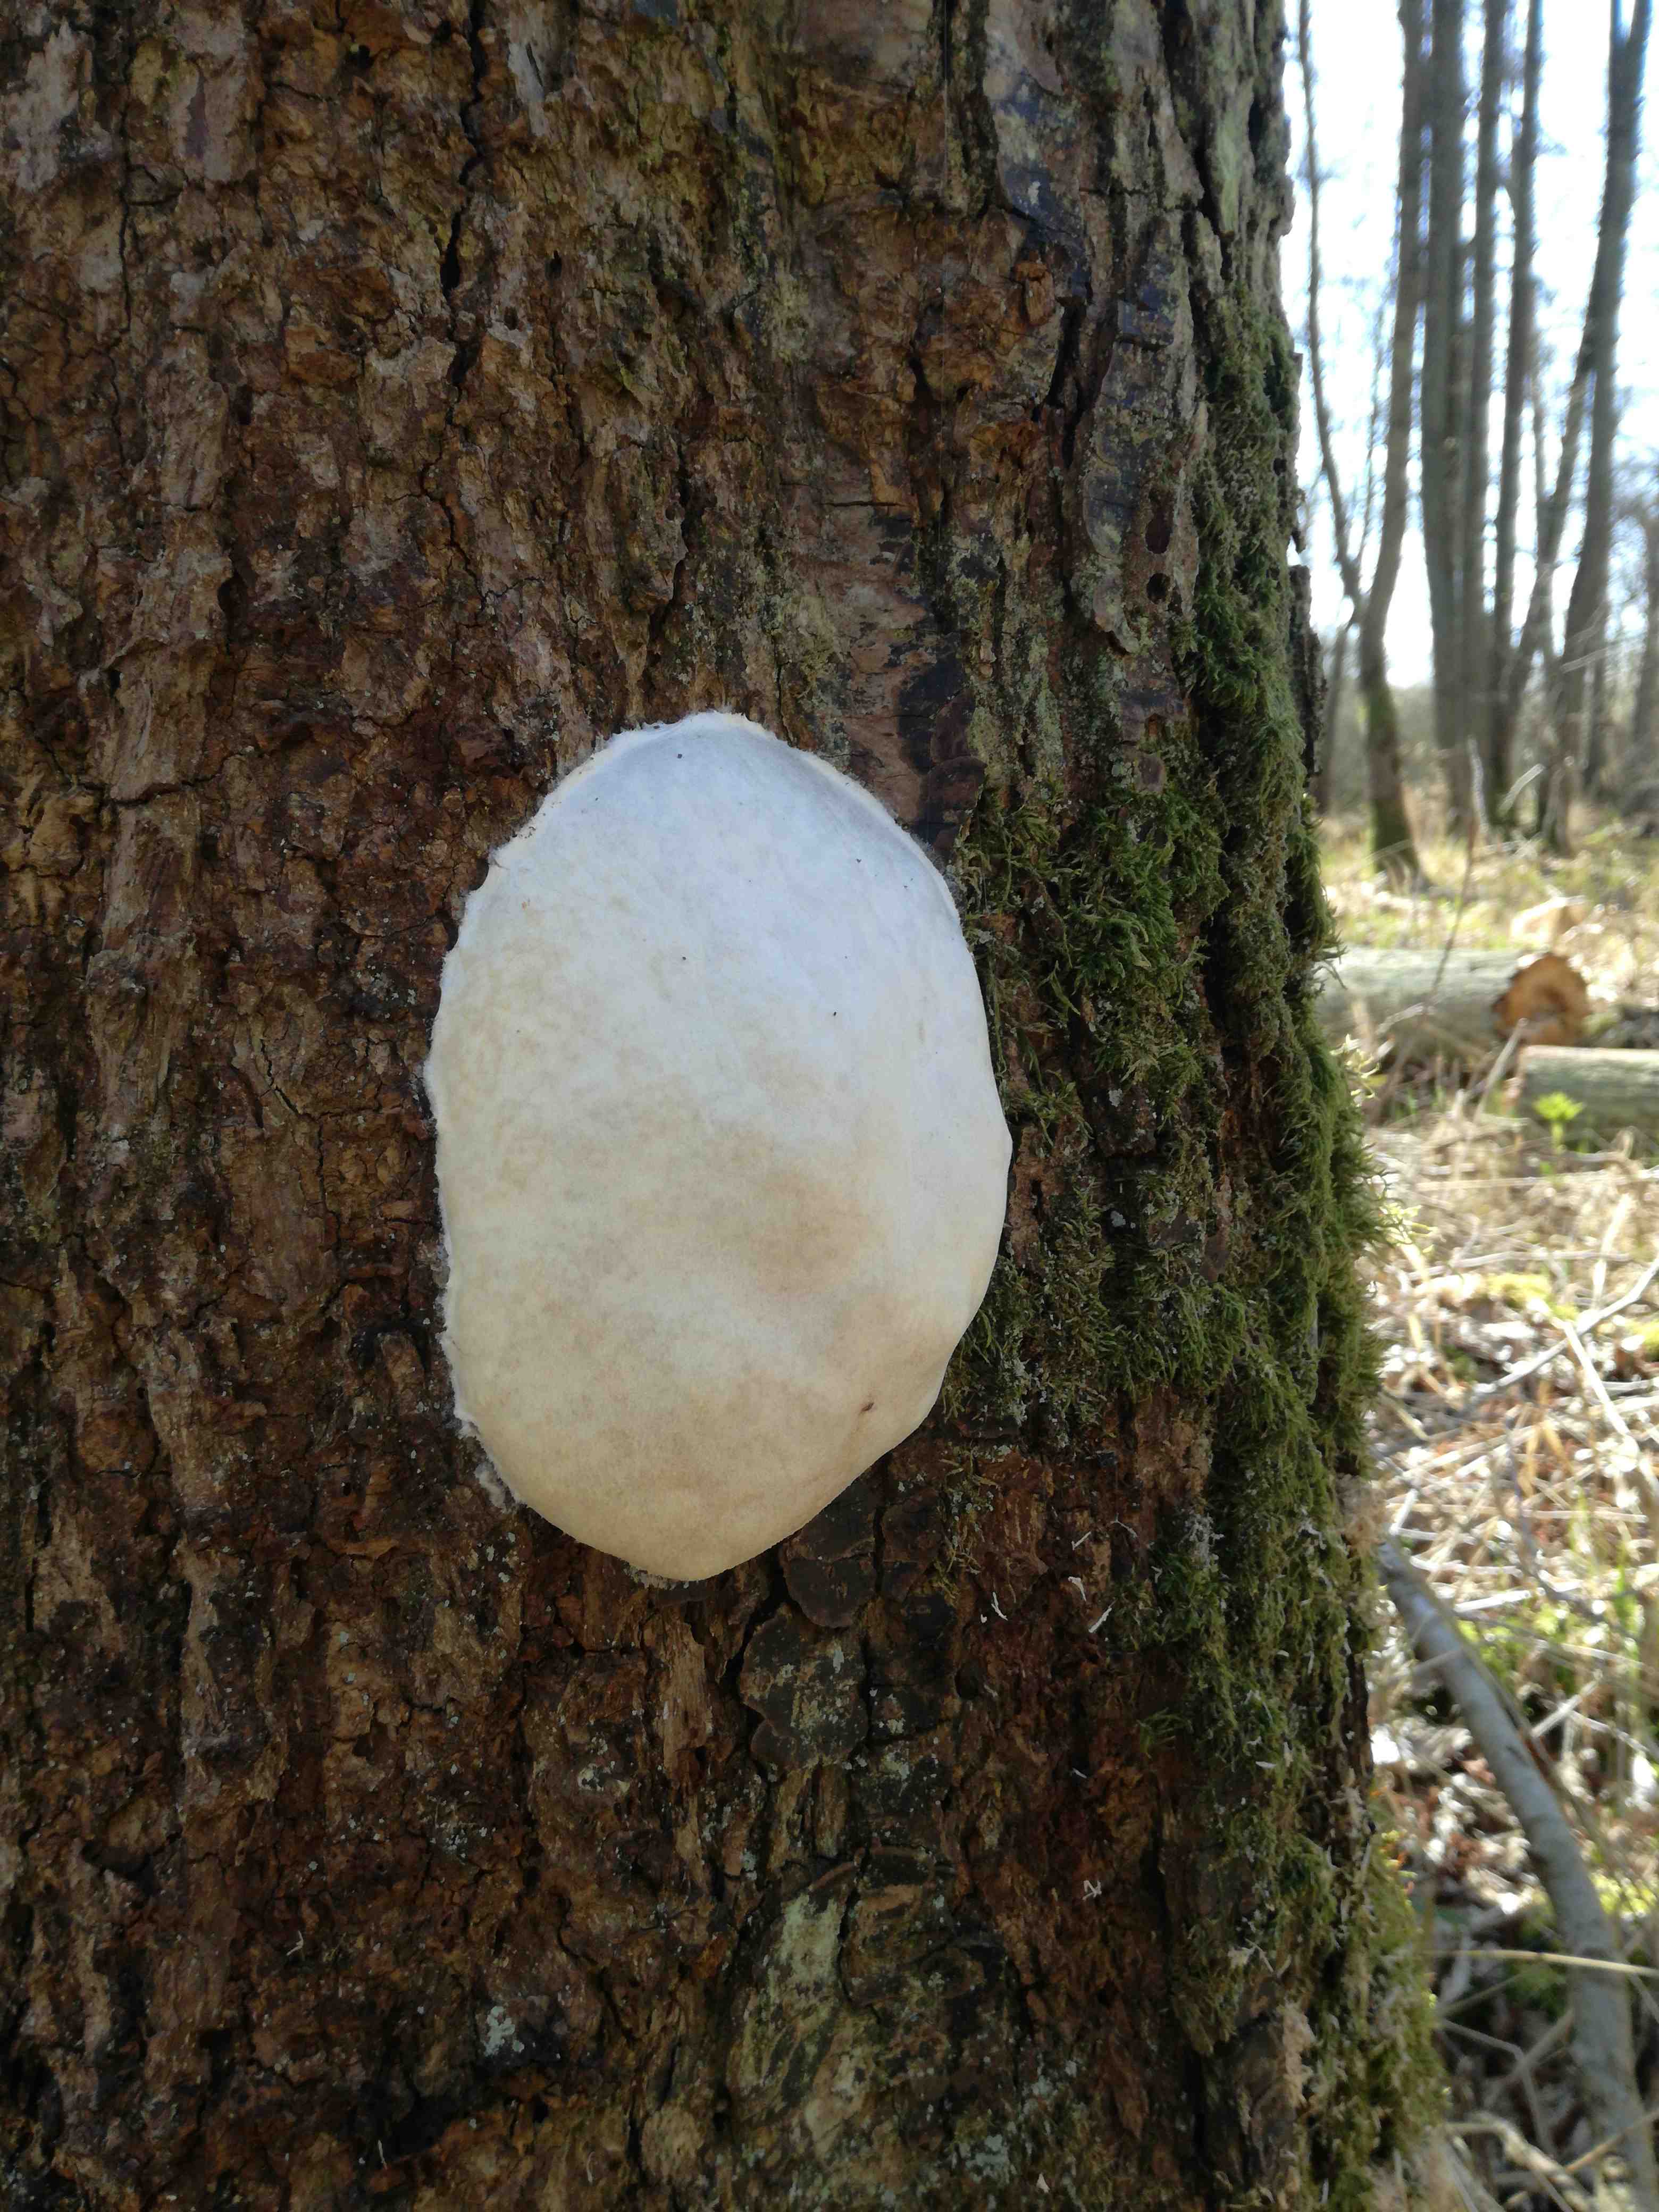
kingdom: Protozoa
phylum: Mycetozoa
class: Myxomycetes
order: Cribrariales
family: Tubiferaceae
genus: Reticularia
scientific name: Reticularia lycoperdon
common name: skinnende støvpude
